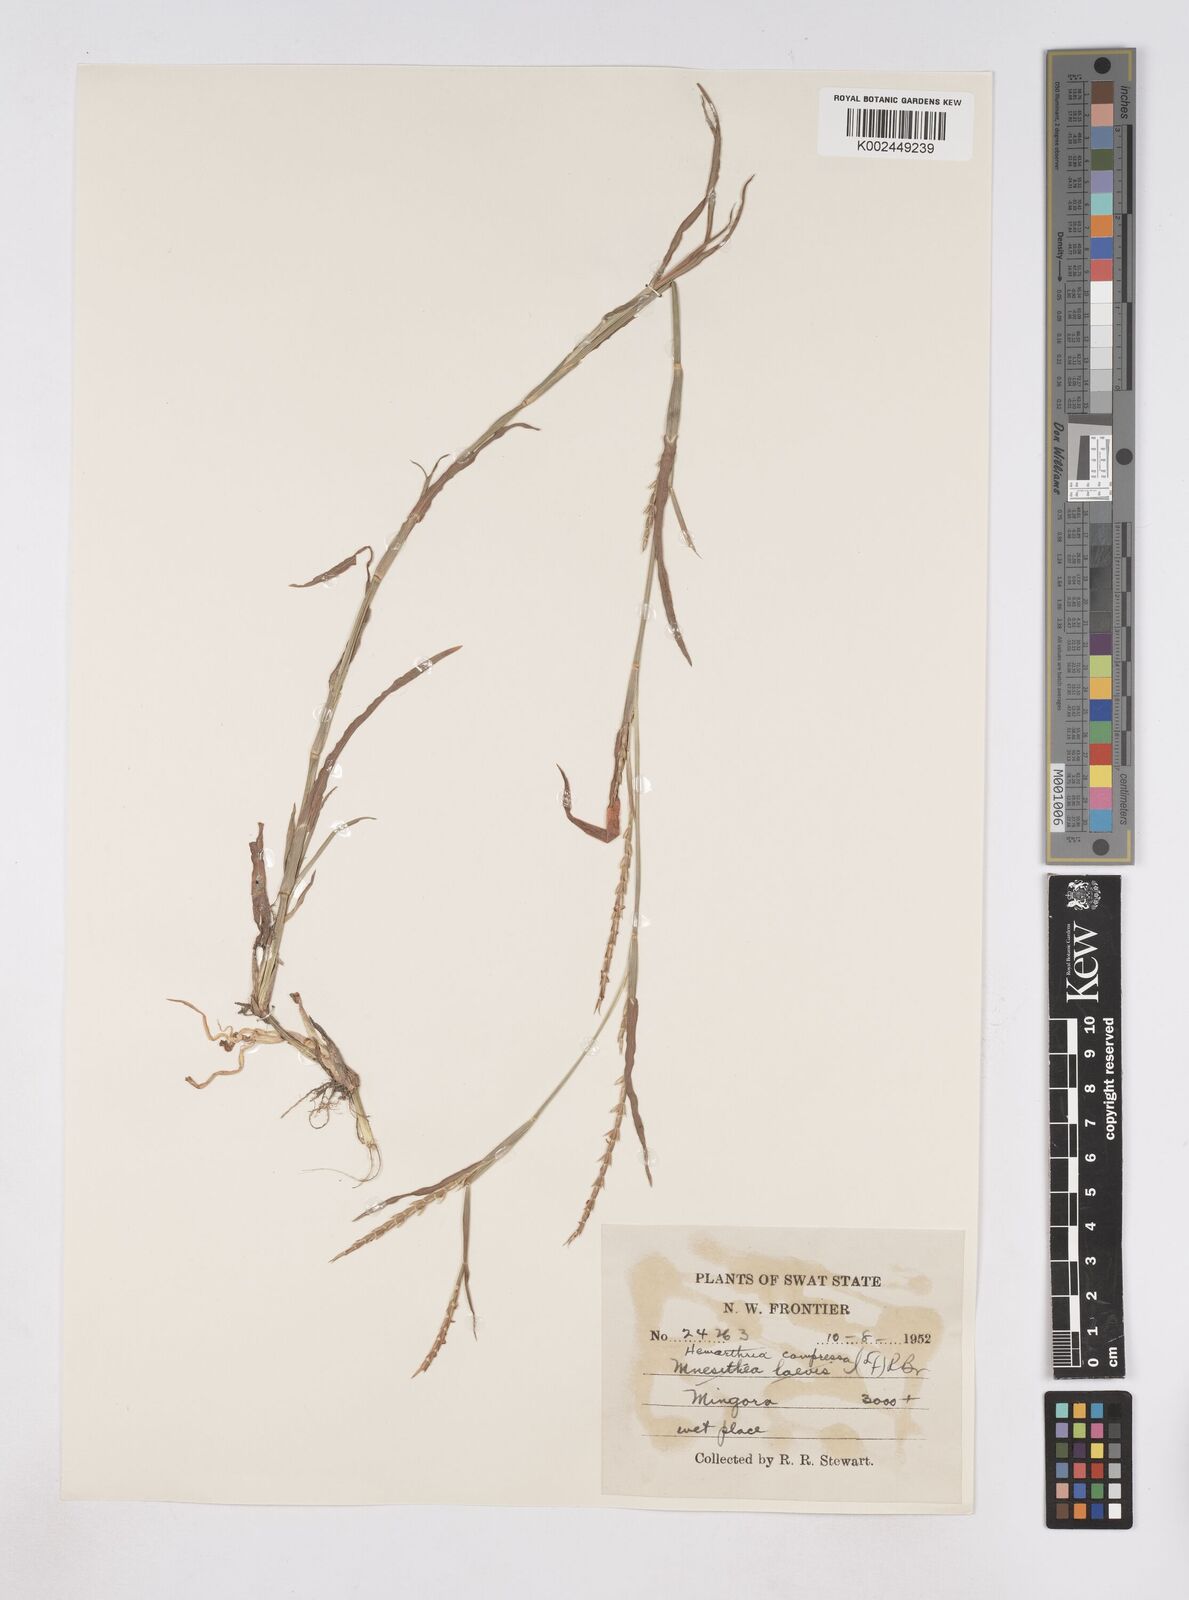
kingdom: Plantae
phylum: Tracheophyta
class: Liliopsida
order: Poales
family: Poaceae
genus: Hemarthria
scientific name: Hemarthria compressa
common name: Whip grass
